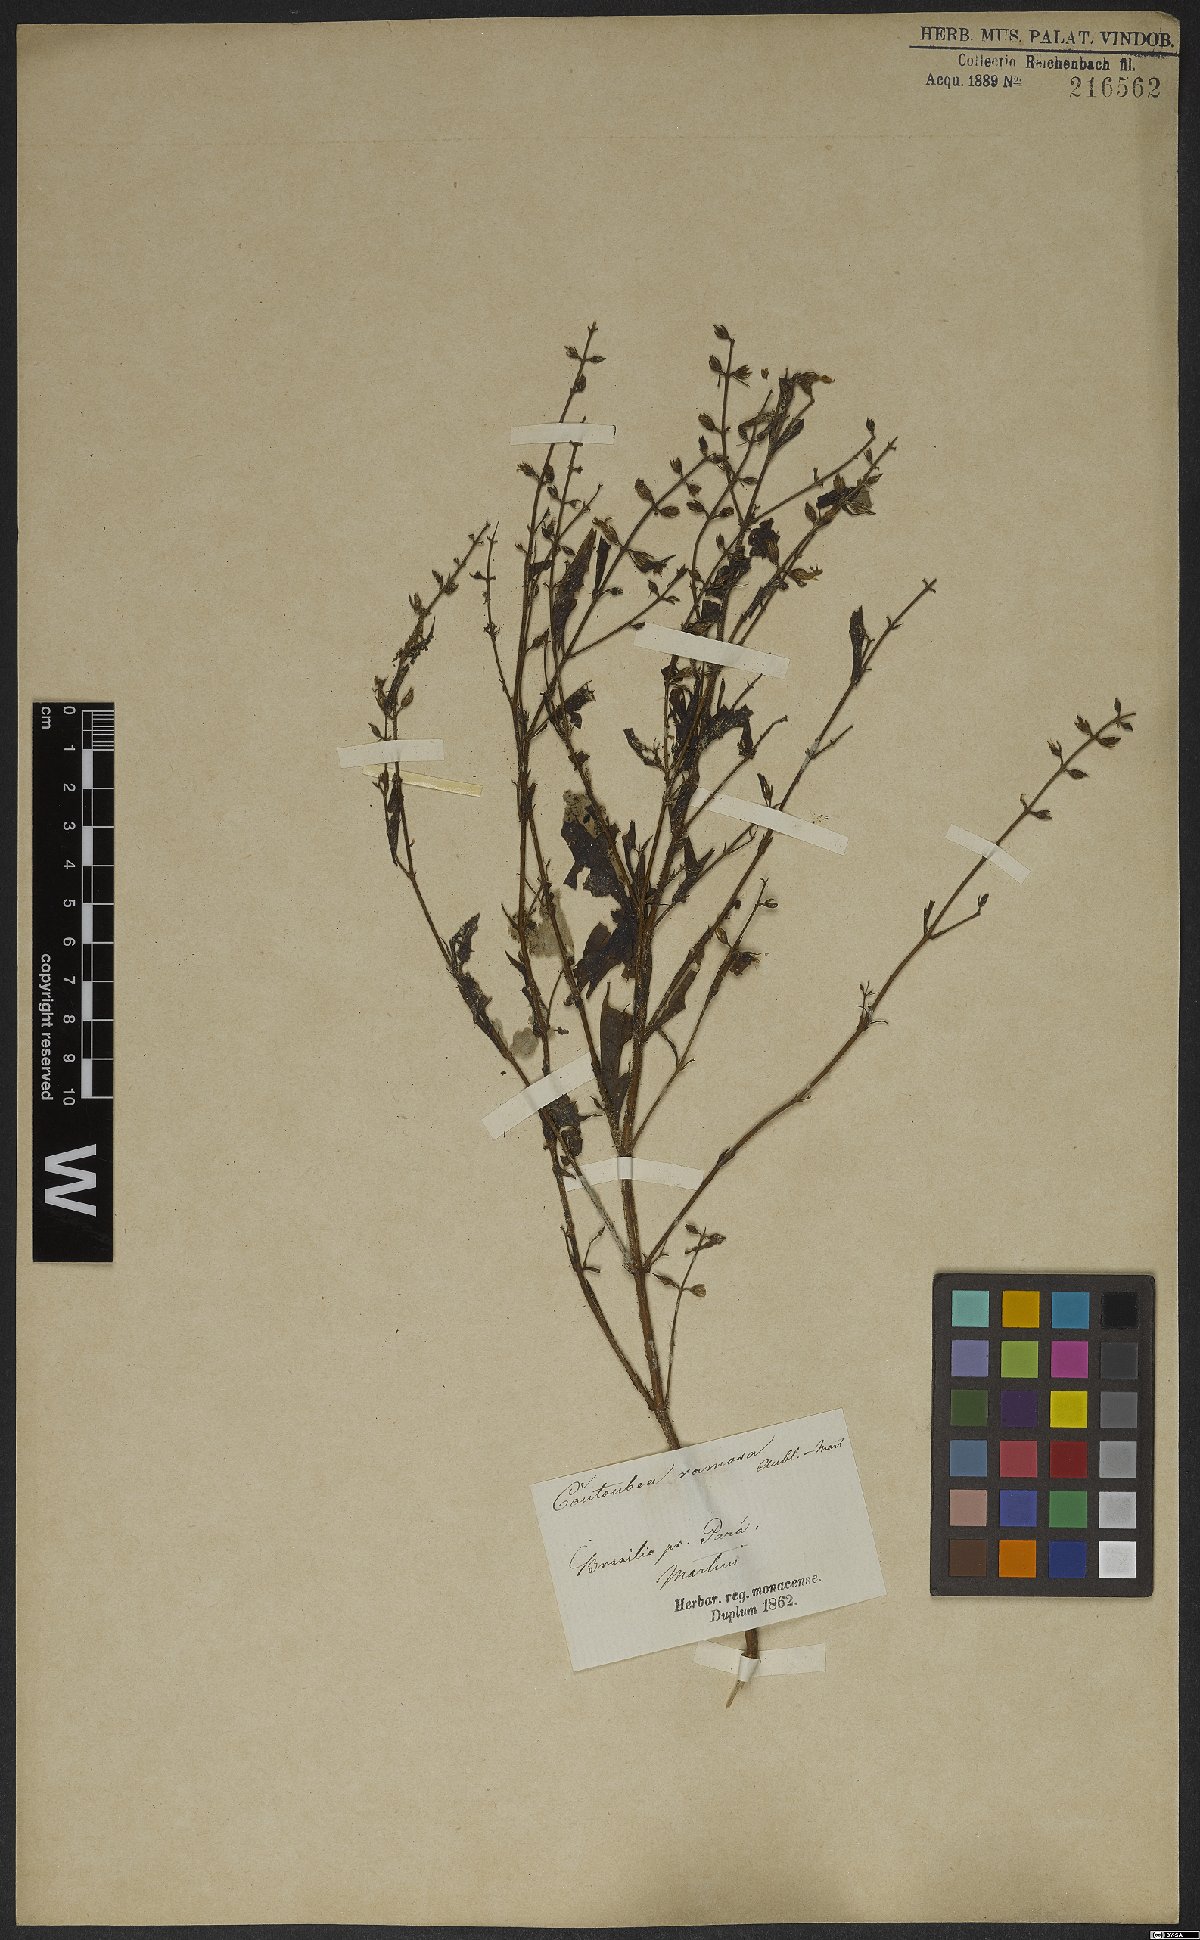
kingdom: Plantae
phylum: Tracheophyta
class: Magnoliopsida
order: Gentianales
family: Gentianaceae
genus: Coutoubea
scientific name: Coutoubea ramosa
